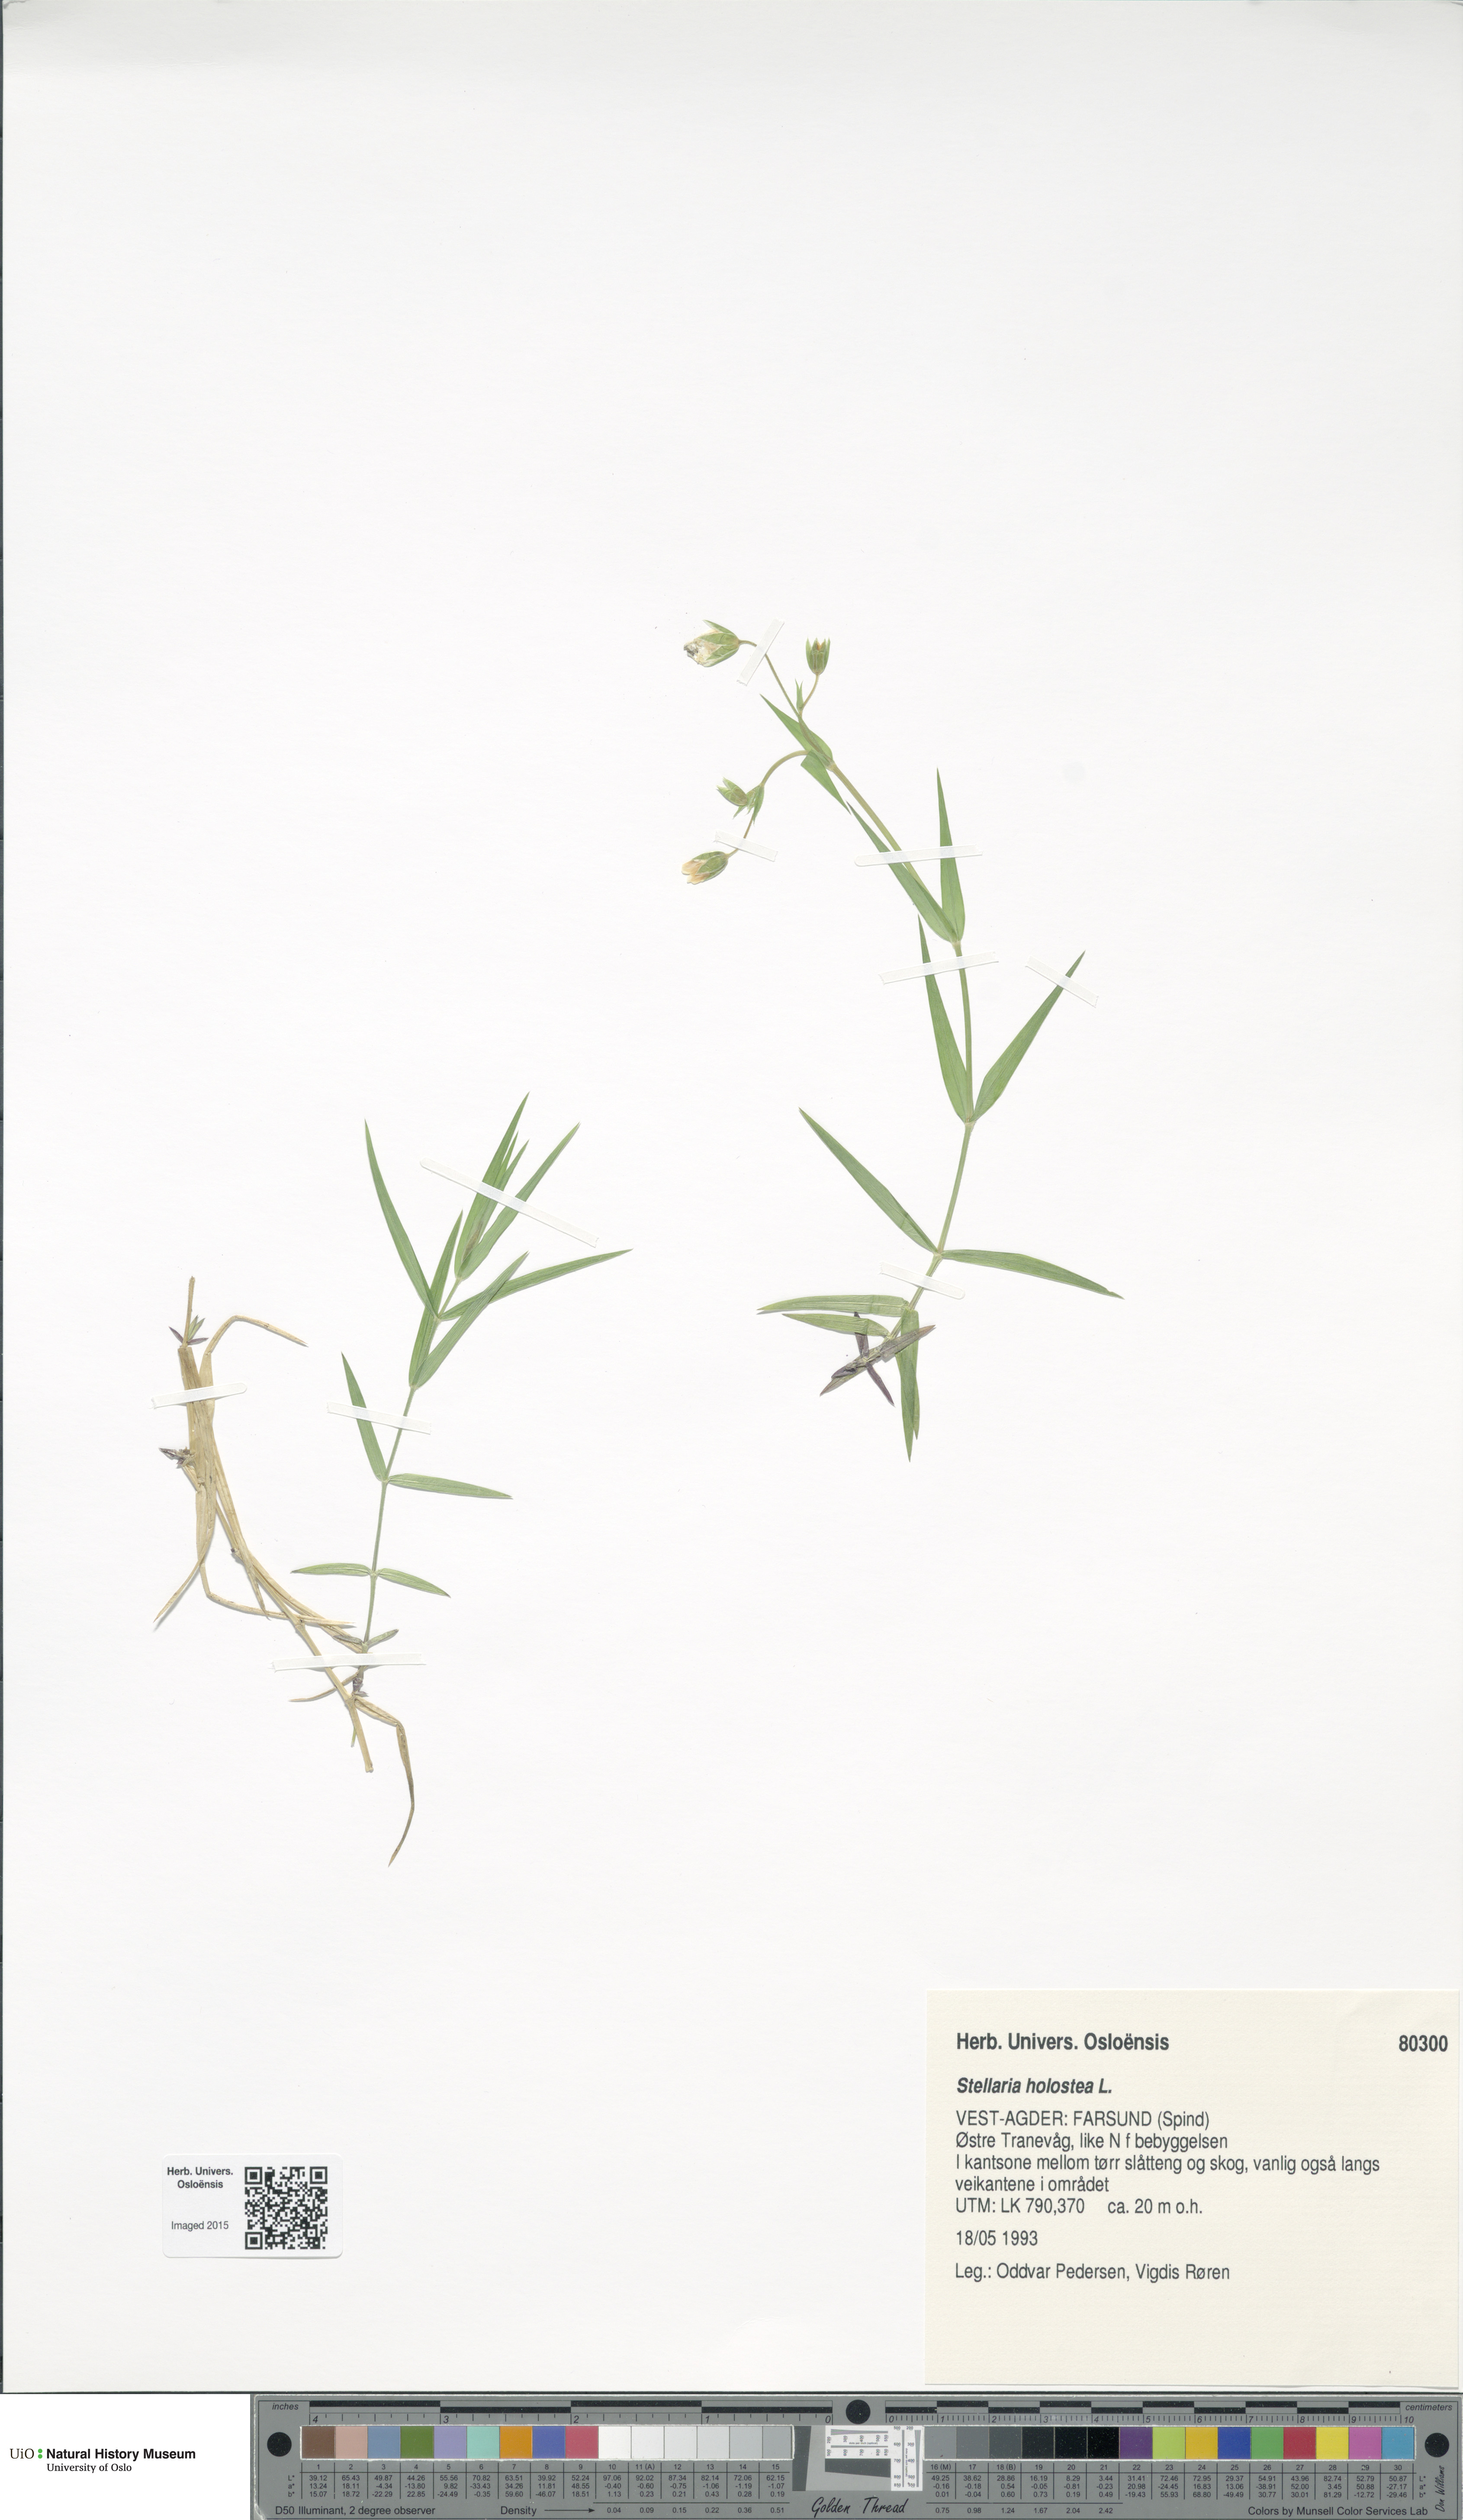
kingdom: Plantae
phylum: Tracheophyta
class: Magnoliopsida
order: Caryophyllales
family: Caryophyllaceae
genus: Rabelera
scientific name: Rabelera holostea
